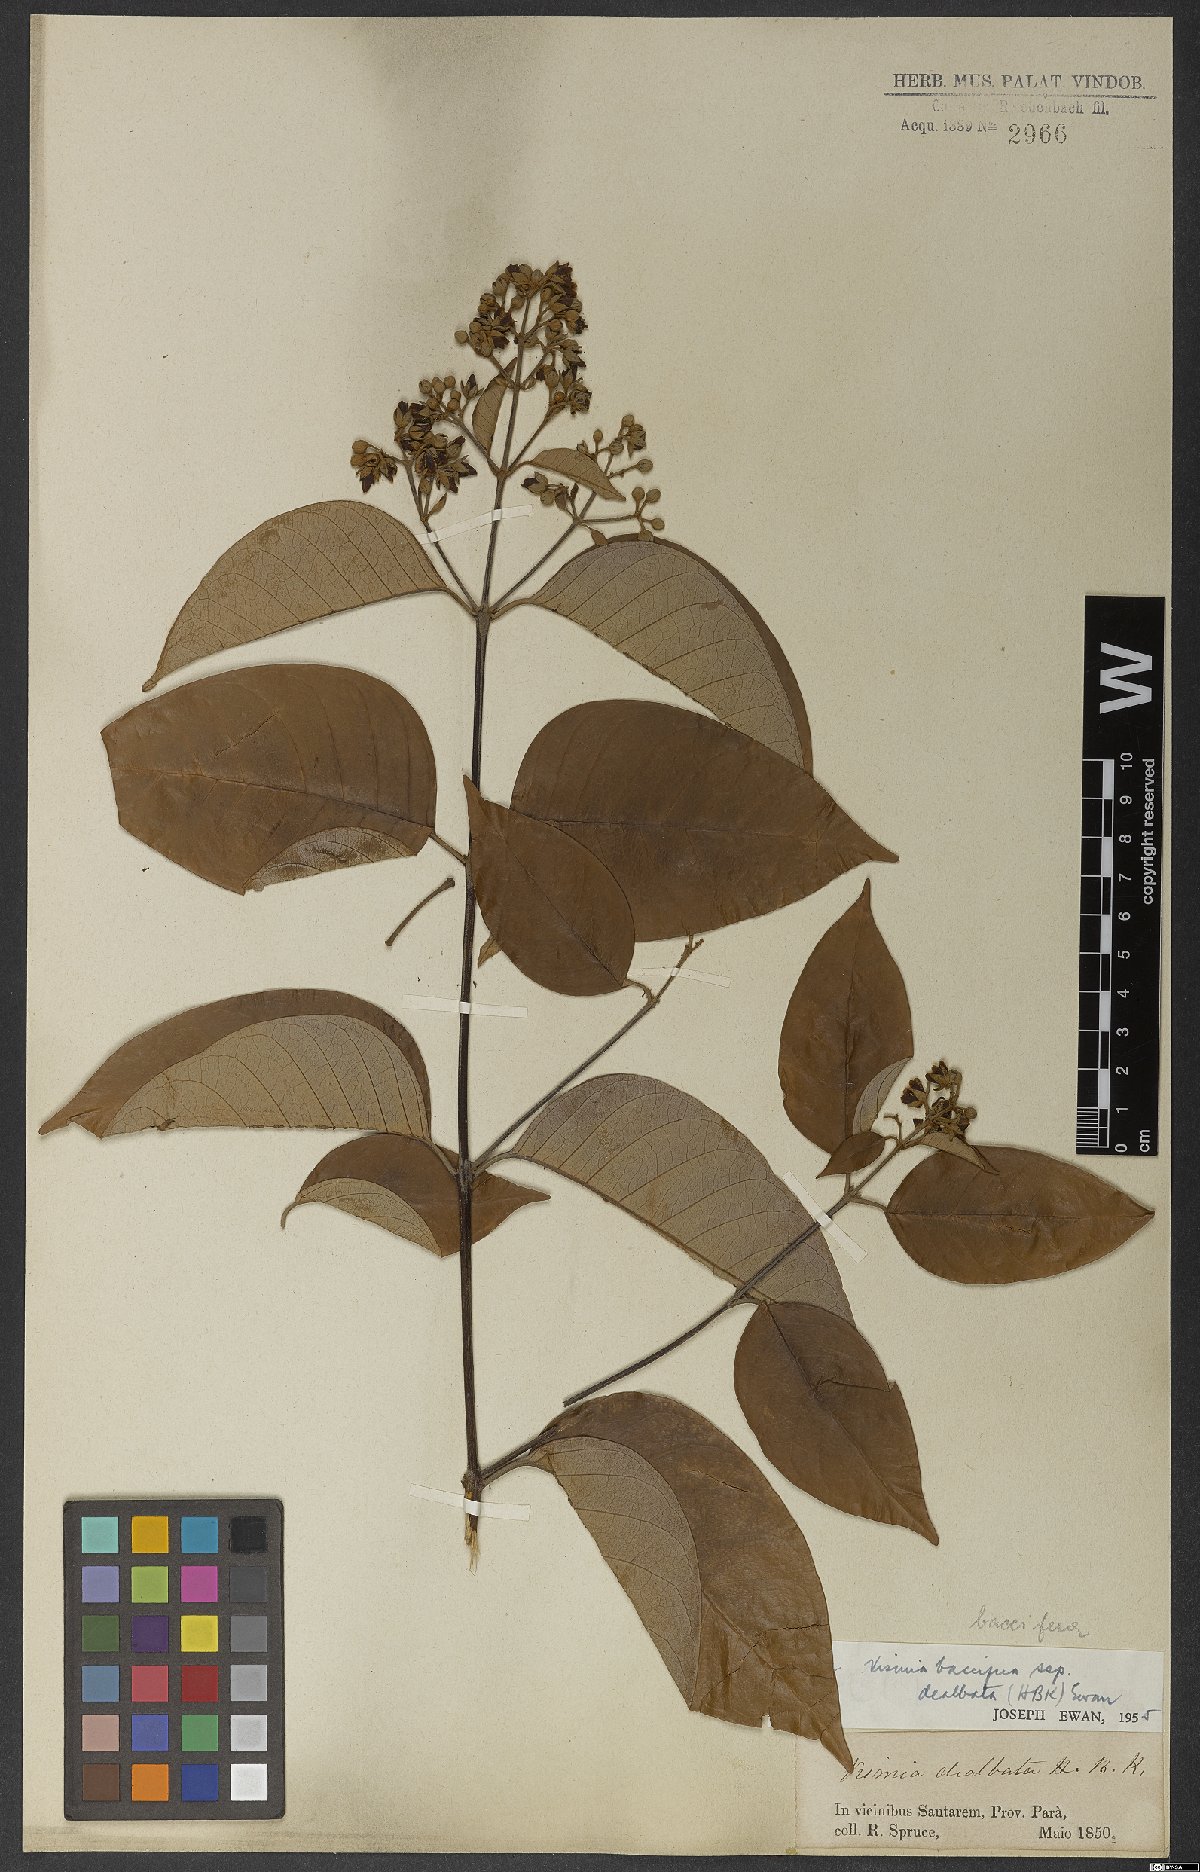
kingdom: Plantae
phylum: Tracheophyta
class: Magnoliopsida
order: Malpighiales
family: Hypericaceae
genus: Vismia
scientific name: Vismia gracilis
